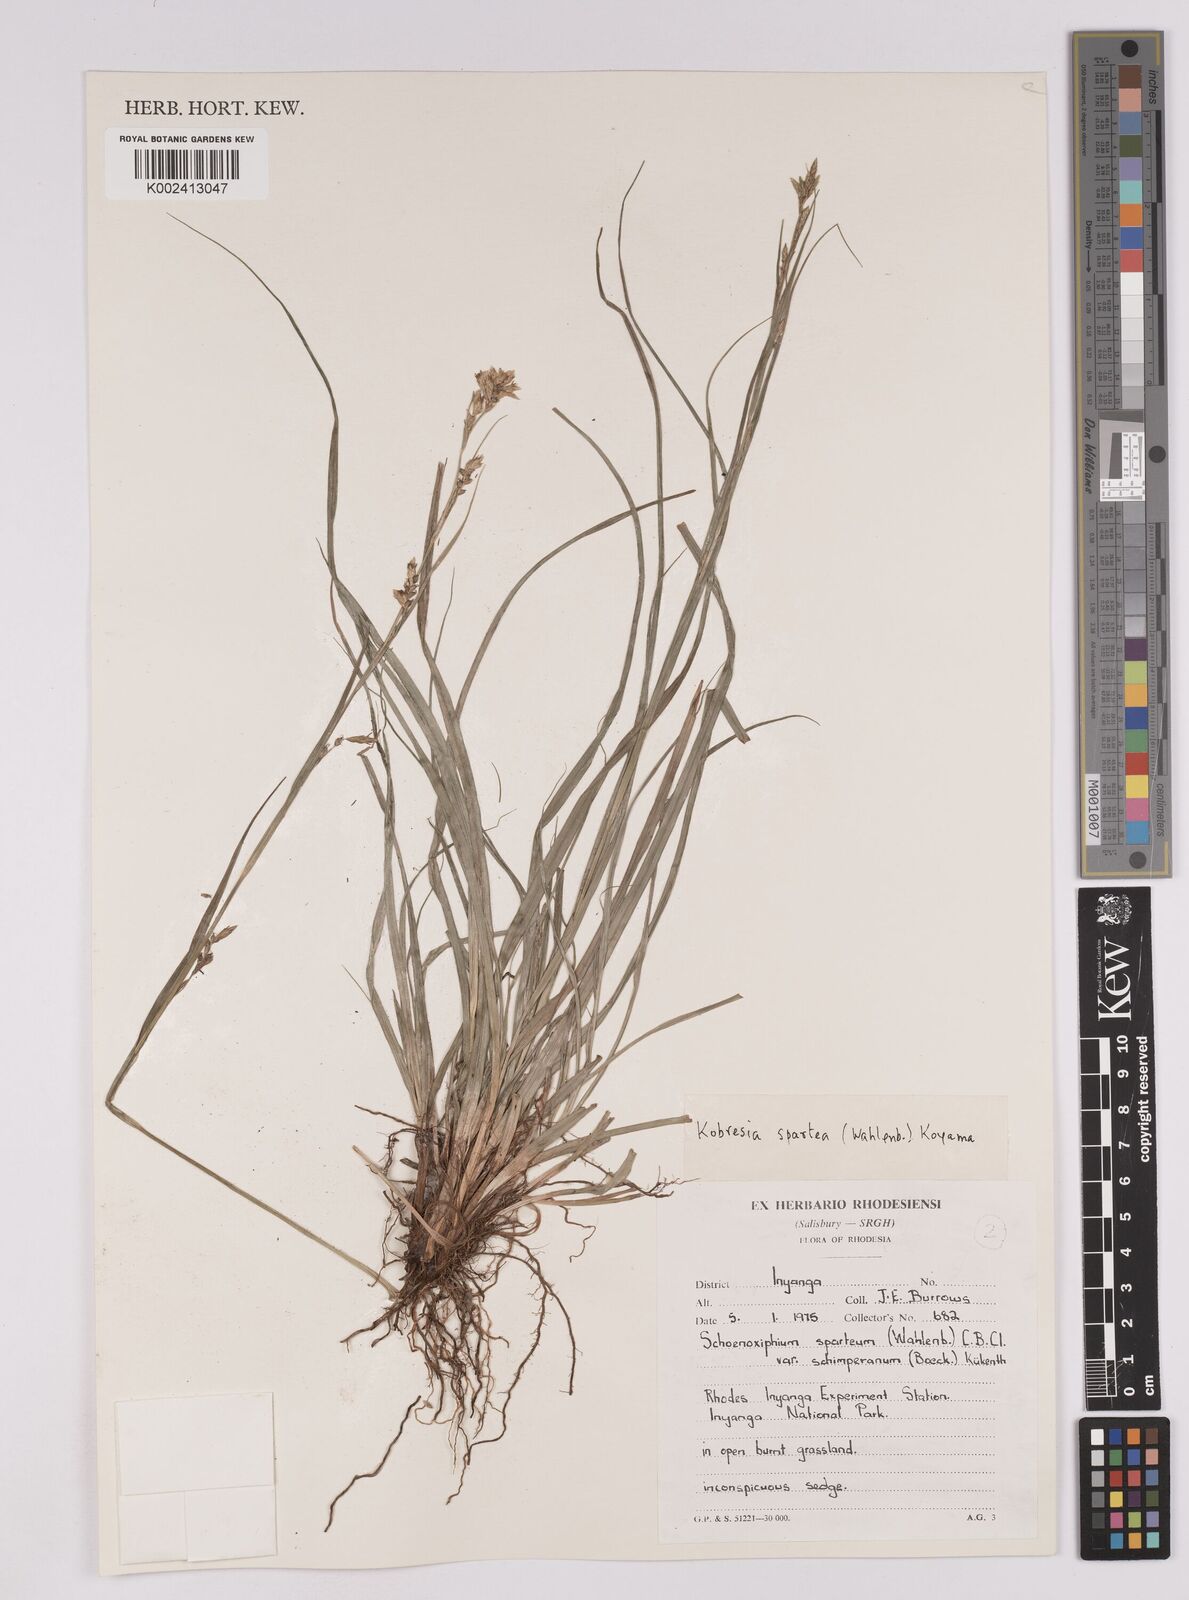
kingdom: Plantae
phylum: Tracheophyta
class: Liliopsida
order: Poales
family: Cyperaceae
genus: Carex
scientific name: Carex spartea
